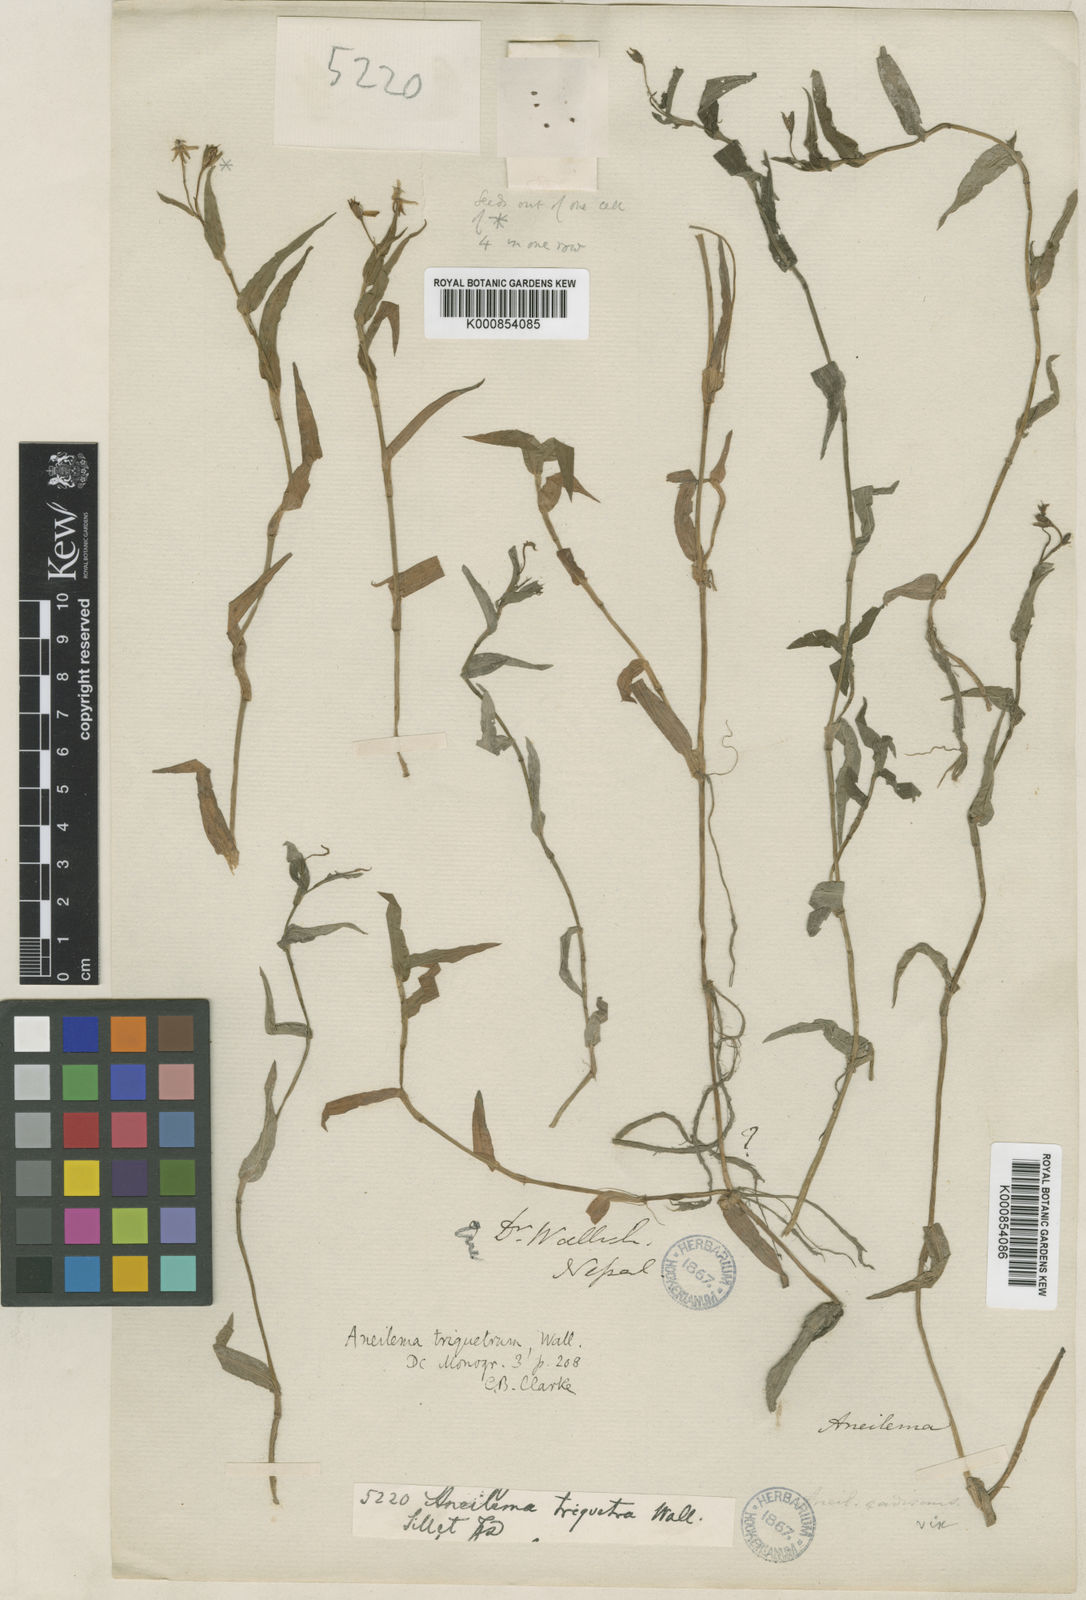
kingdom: Plantae
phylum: Tracheophyta
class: Liliopsida
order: Commelinales
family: Commelinaceae
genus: Murdannia
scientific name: Murdannia
